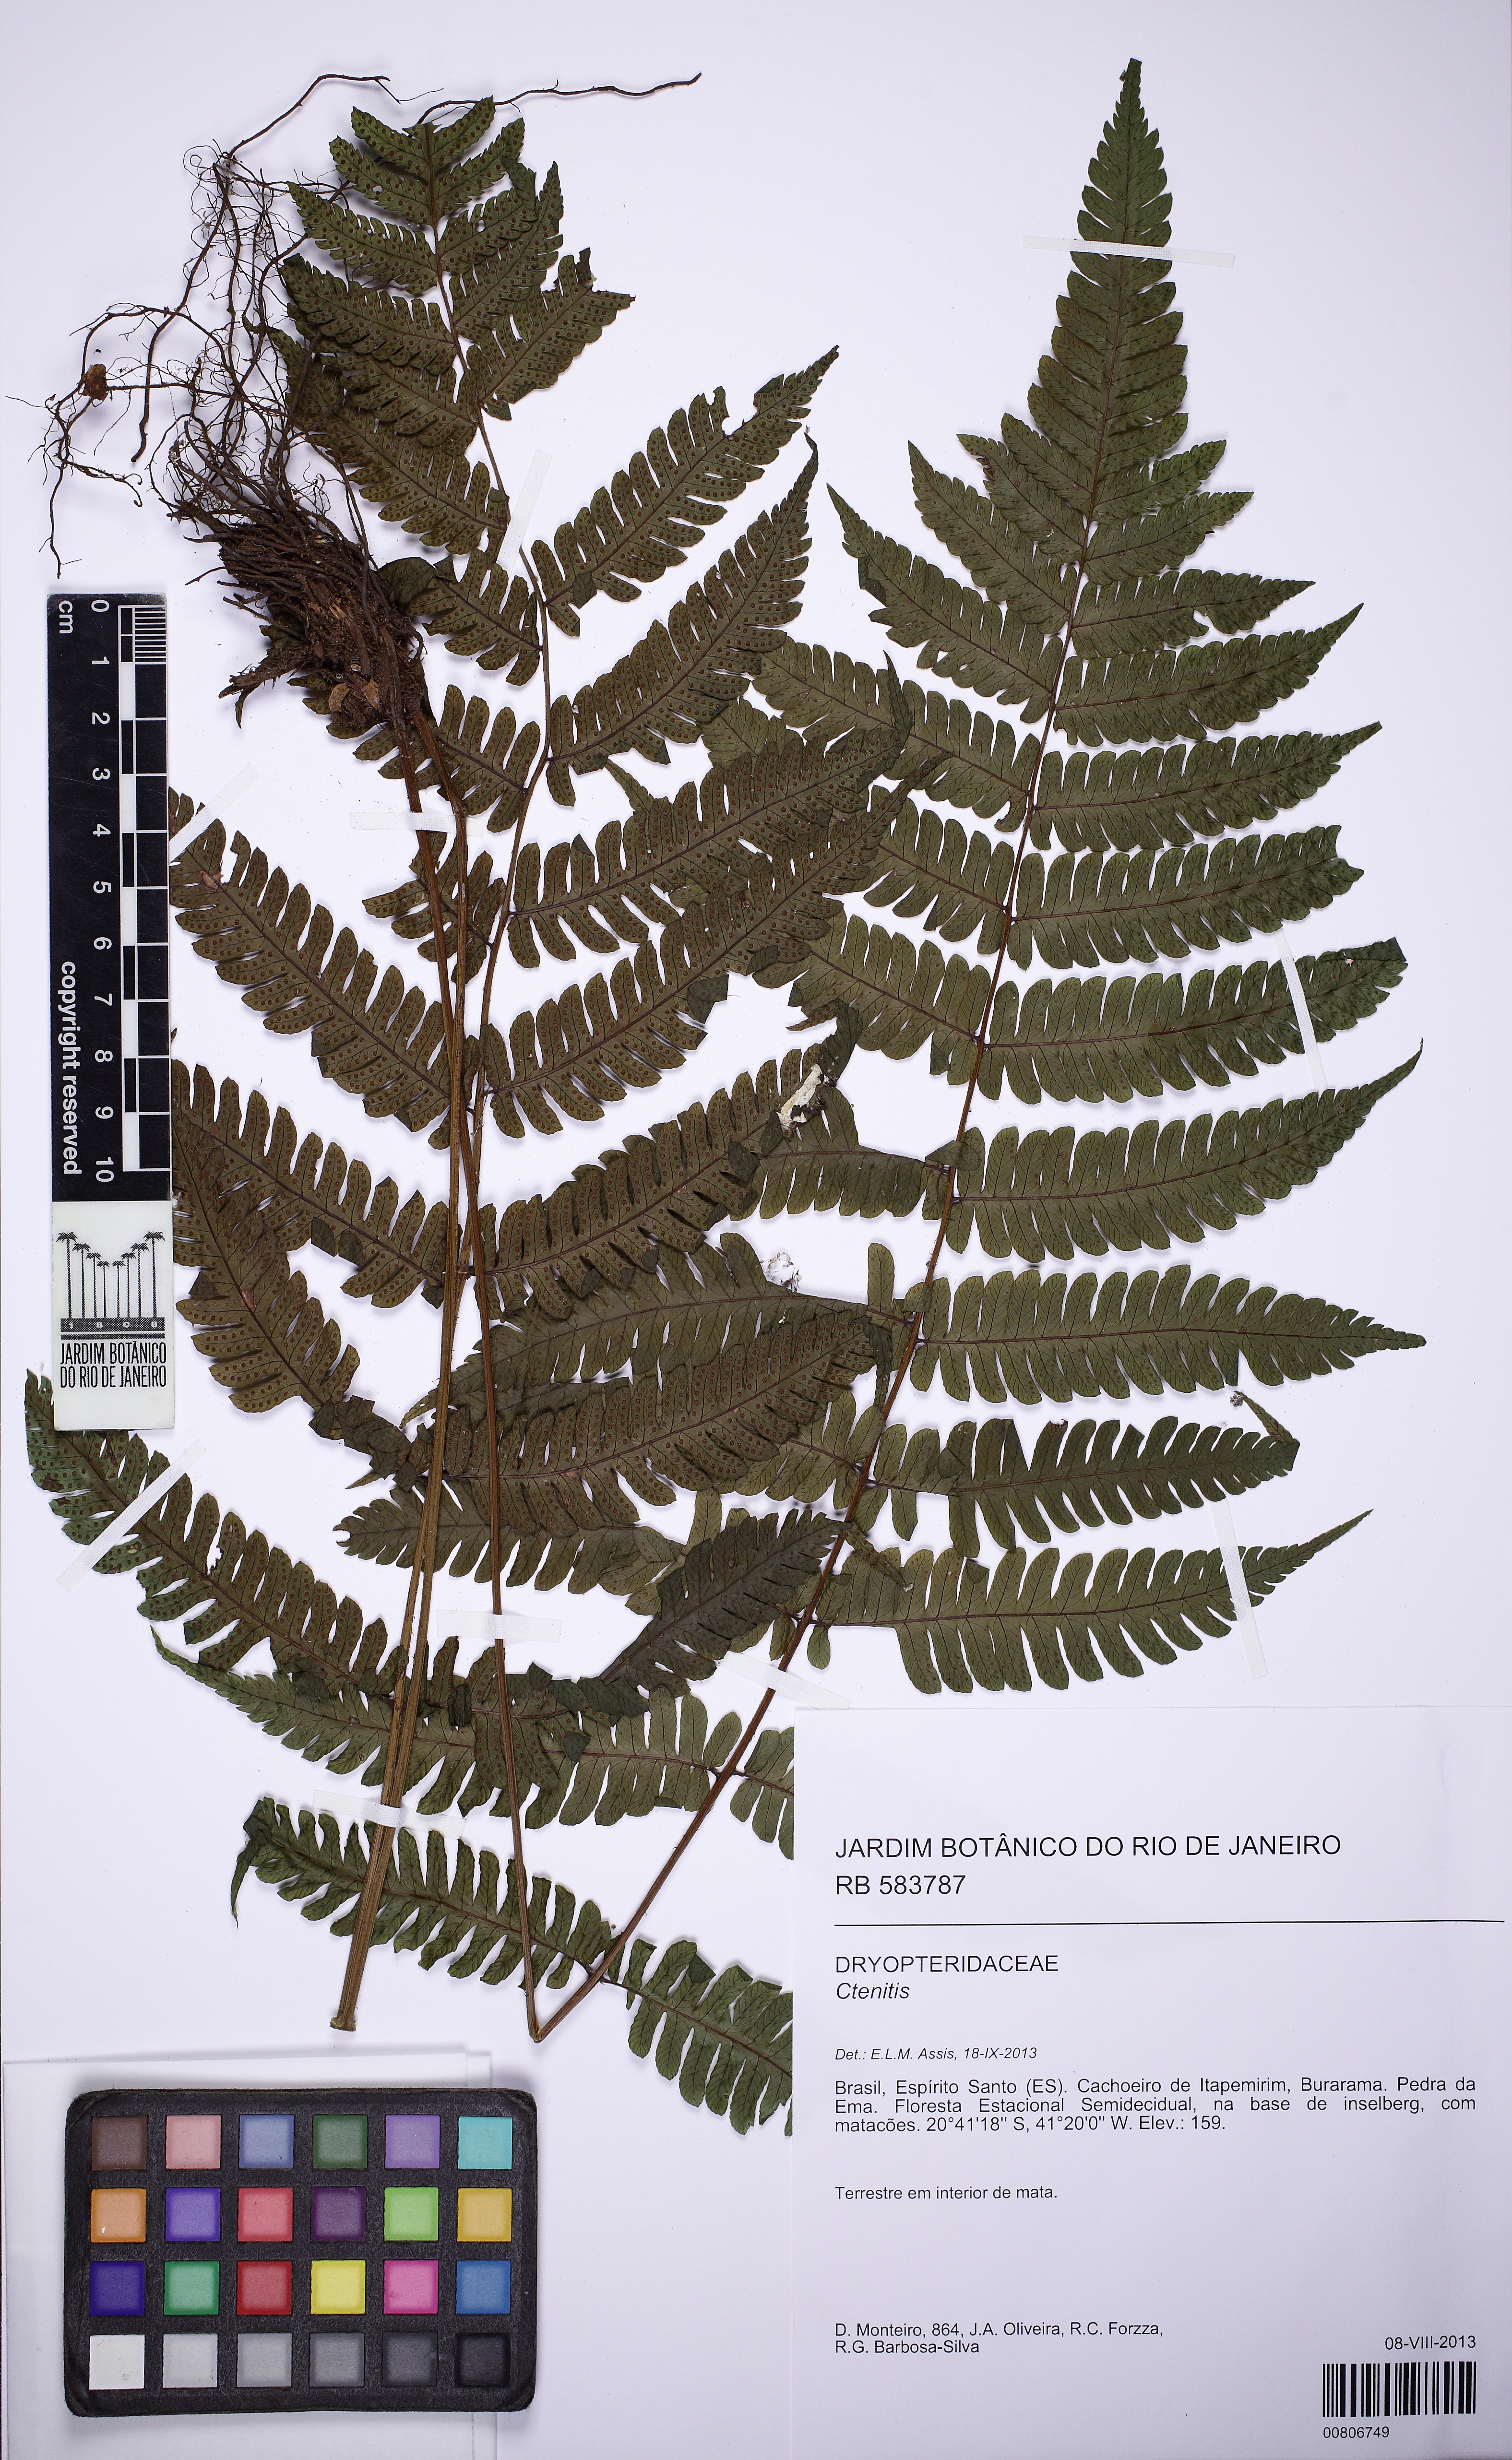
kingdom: Plantae
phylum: Tracheophyta
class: Polypodiopsida
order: Polypodiales
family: Dryopteridaceae
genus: Ctenitis
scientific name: Ctenitis paranaensis
